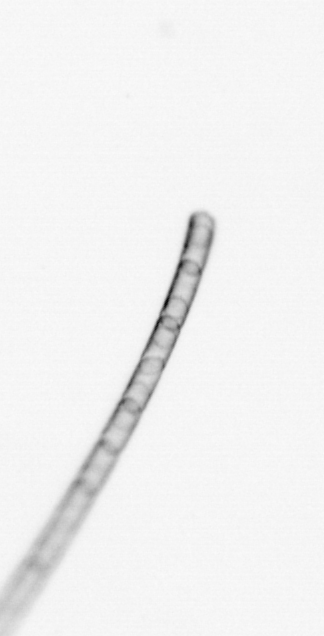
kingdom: Chromista
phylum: Ochrophyta
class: Bacillariophyceae
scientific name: Bacillariophyceae
